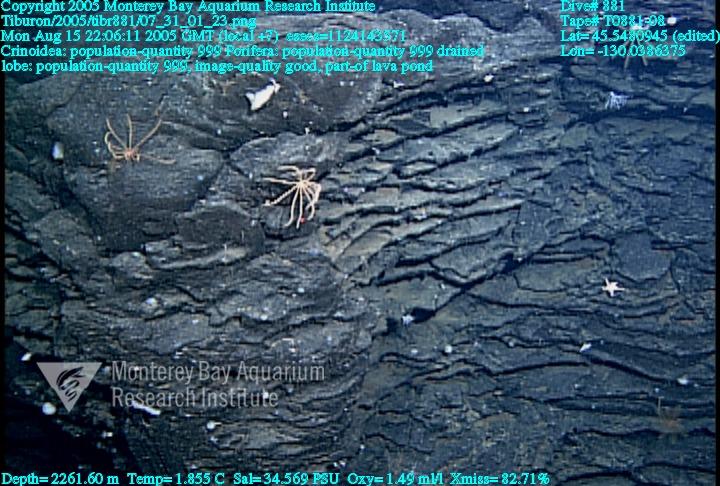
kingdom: Animalia
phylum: Porifera
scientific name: Porifera
